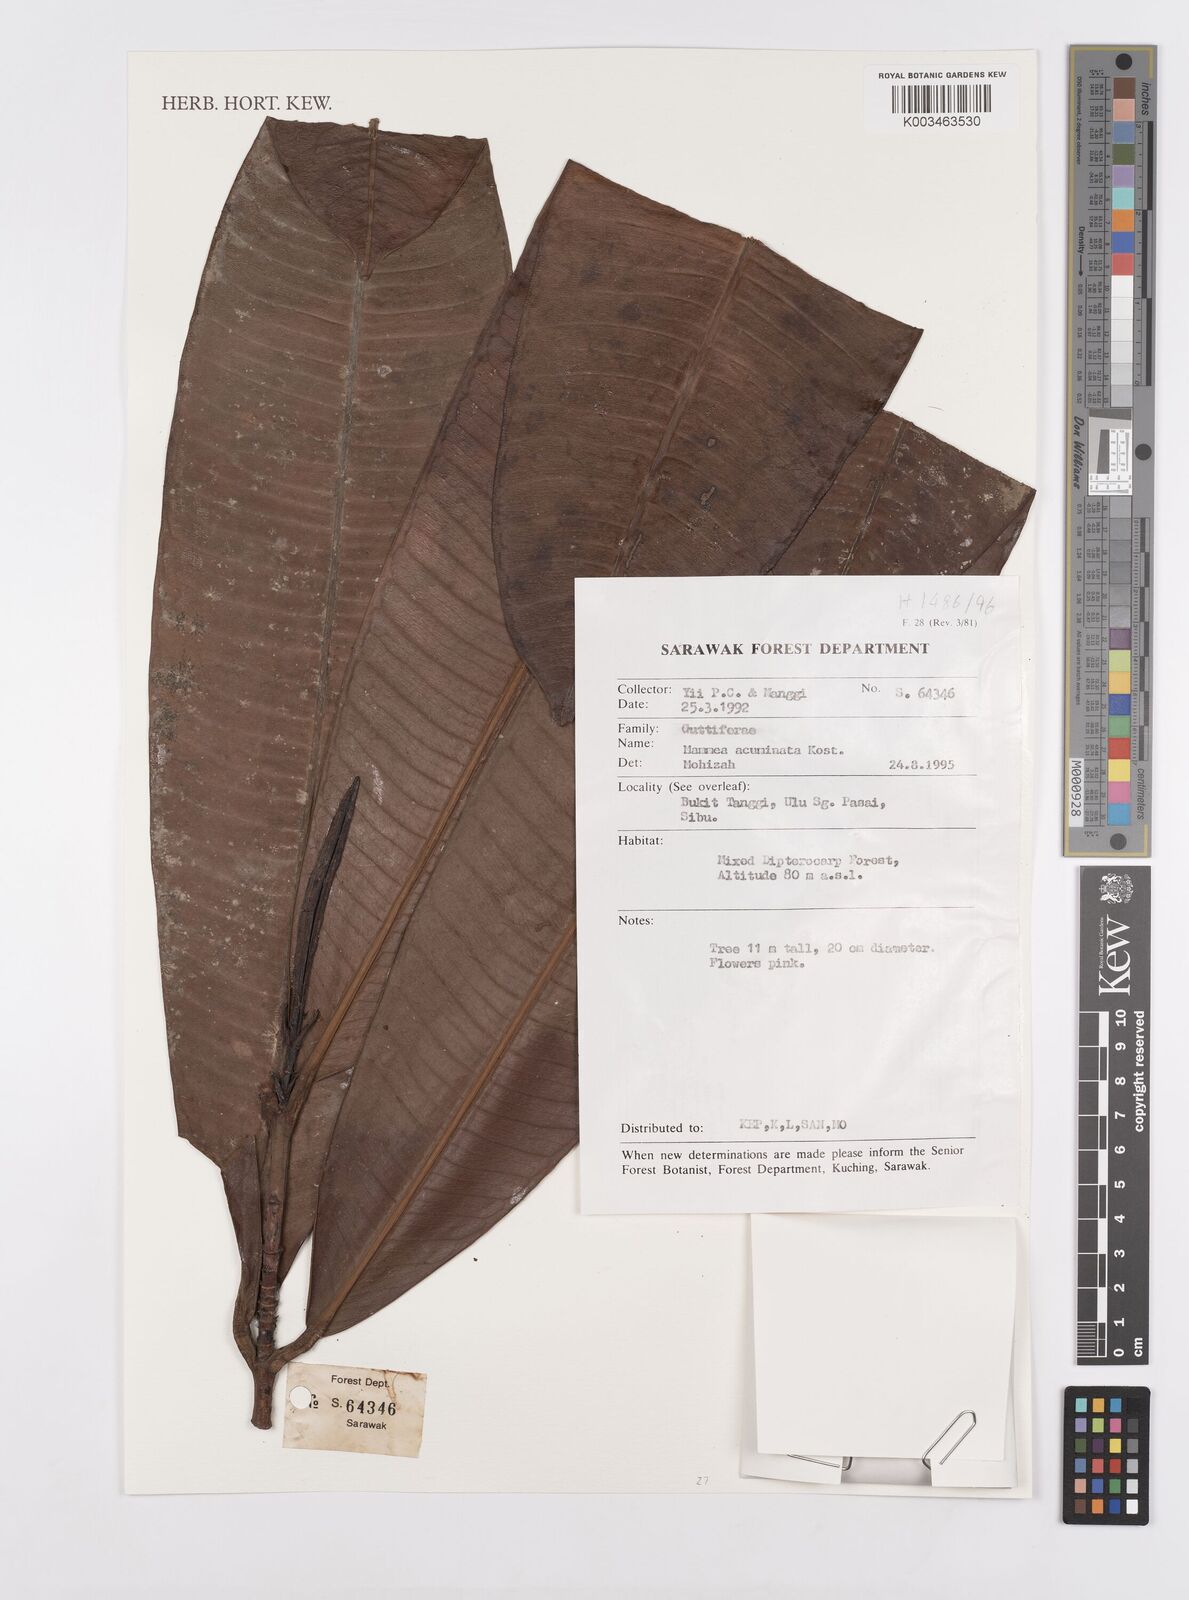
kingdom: Plantae
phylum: Tracheophyta
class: Magnoliopsida
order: Malpighiales
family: Calophyllaceae
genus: Mammea
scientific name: Mammea acuminata
